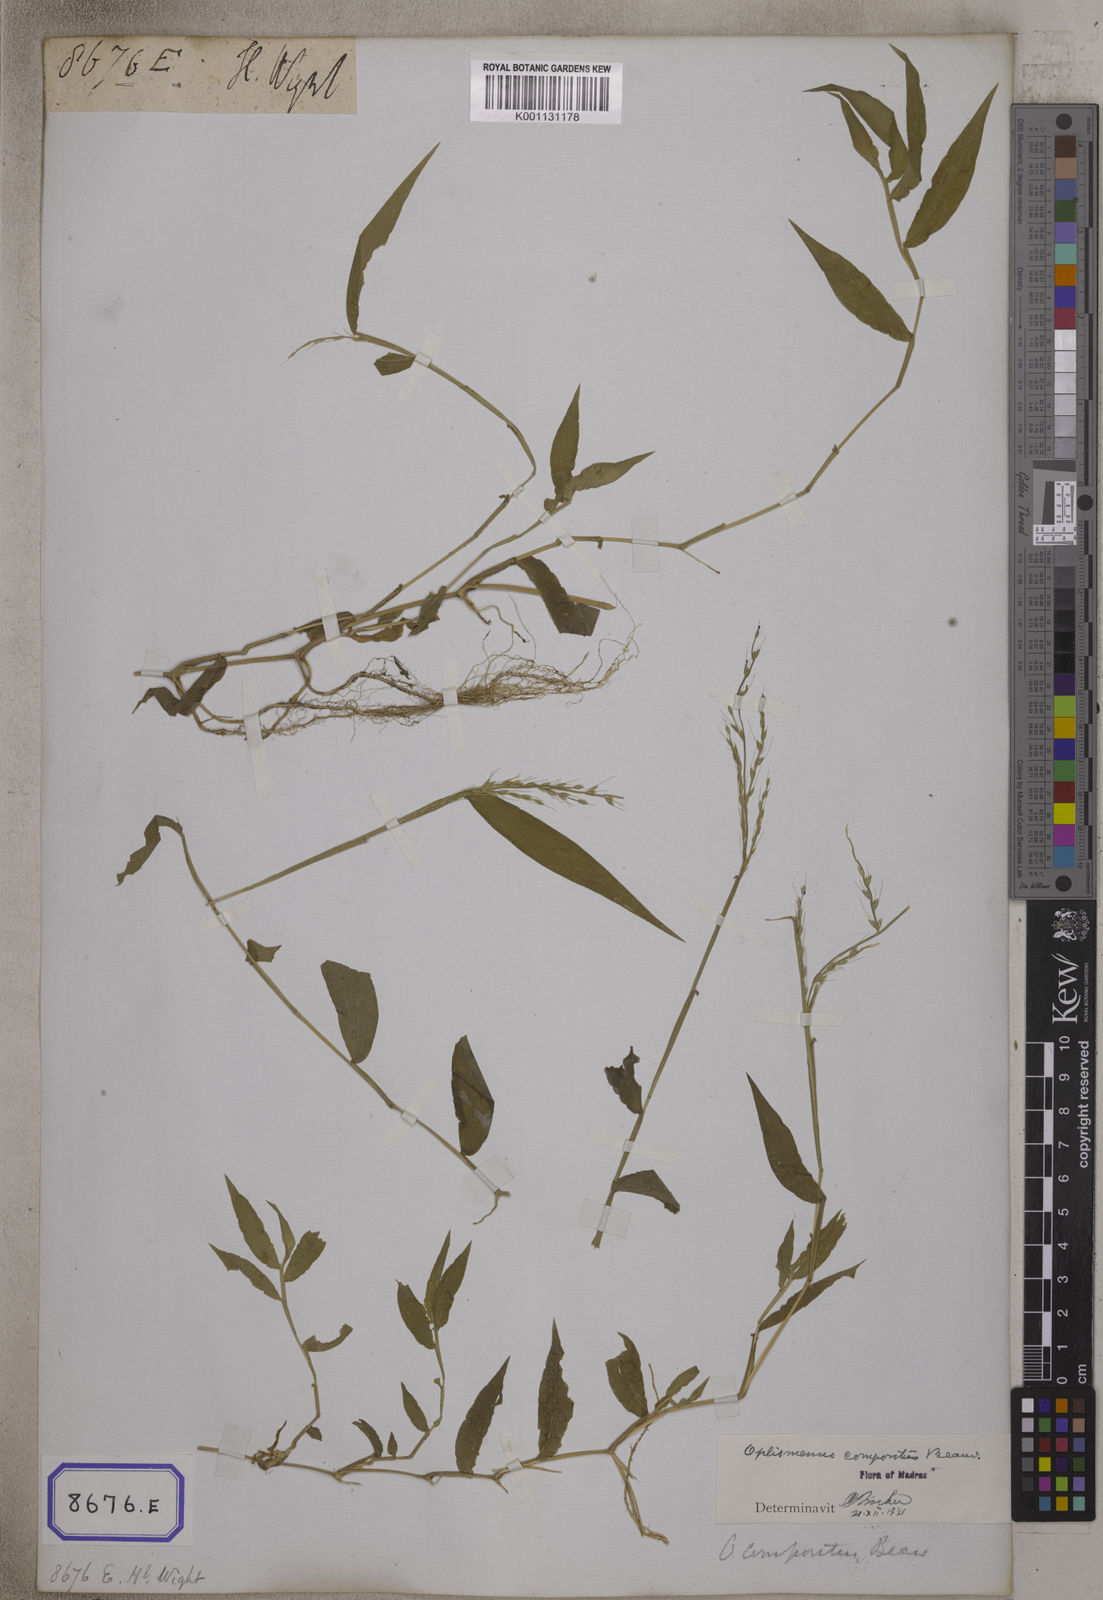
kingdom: Plantae
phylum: Tracheophyta
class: Liliopsida
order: Poales
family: Poaceae
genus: Oplismenus
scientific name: Oplismenus compositus
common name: Running mountain grass
